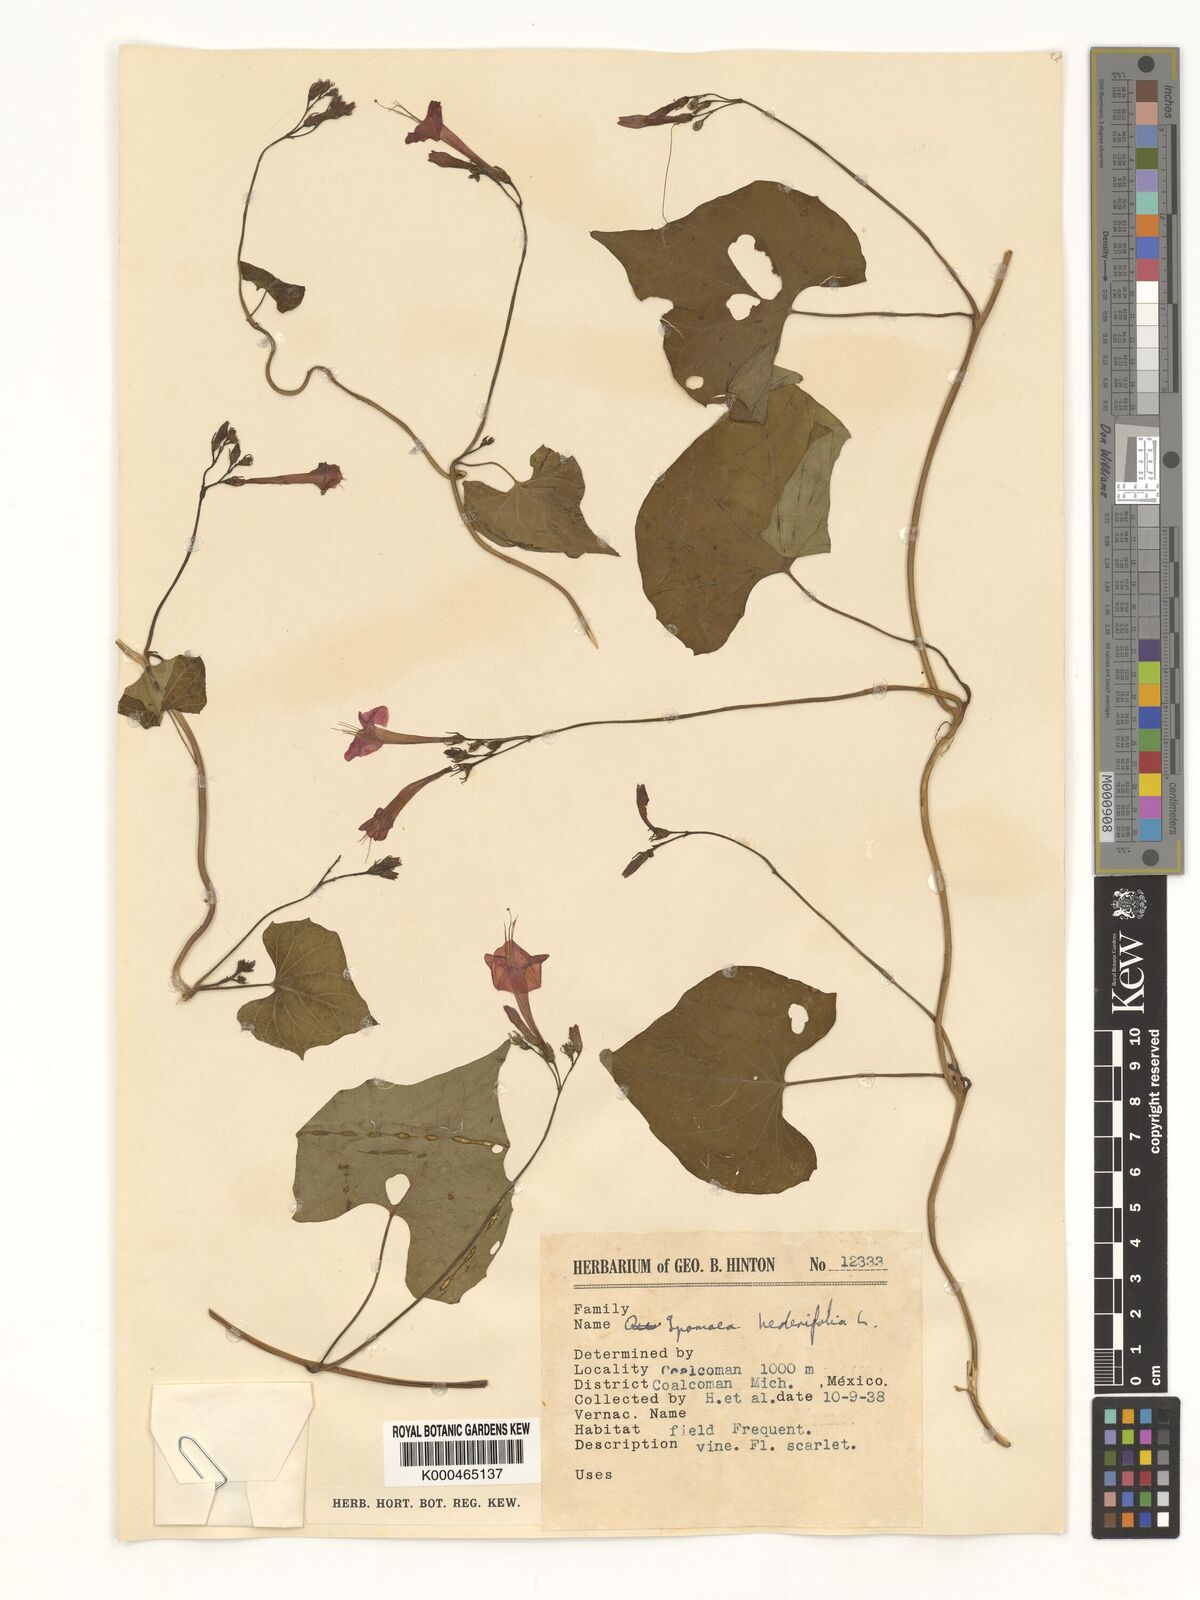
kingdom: Plantae
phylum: Tracheophyta
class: Magnoliopsida
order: Solanales
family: Convolvulaceae
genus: Ipomoea
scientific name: Ipomoea hederifolia
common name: Ivy-leaf morning-glory
